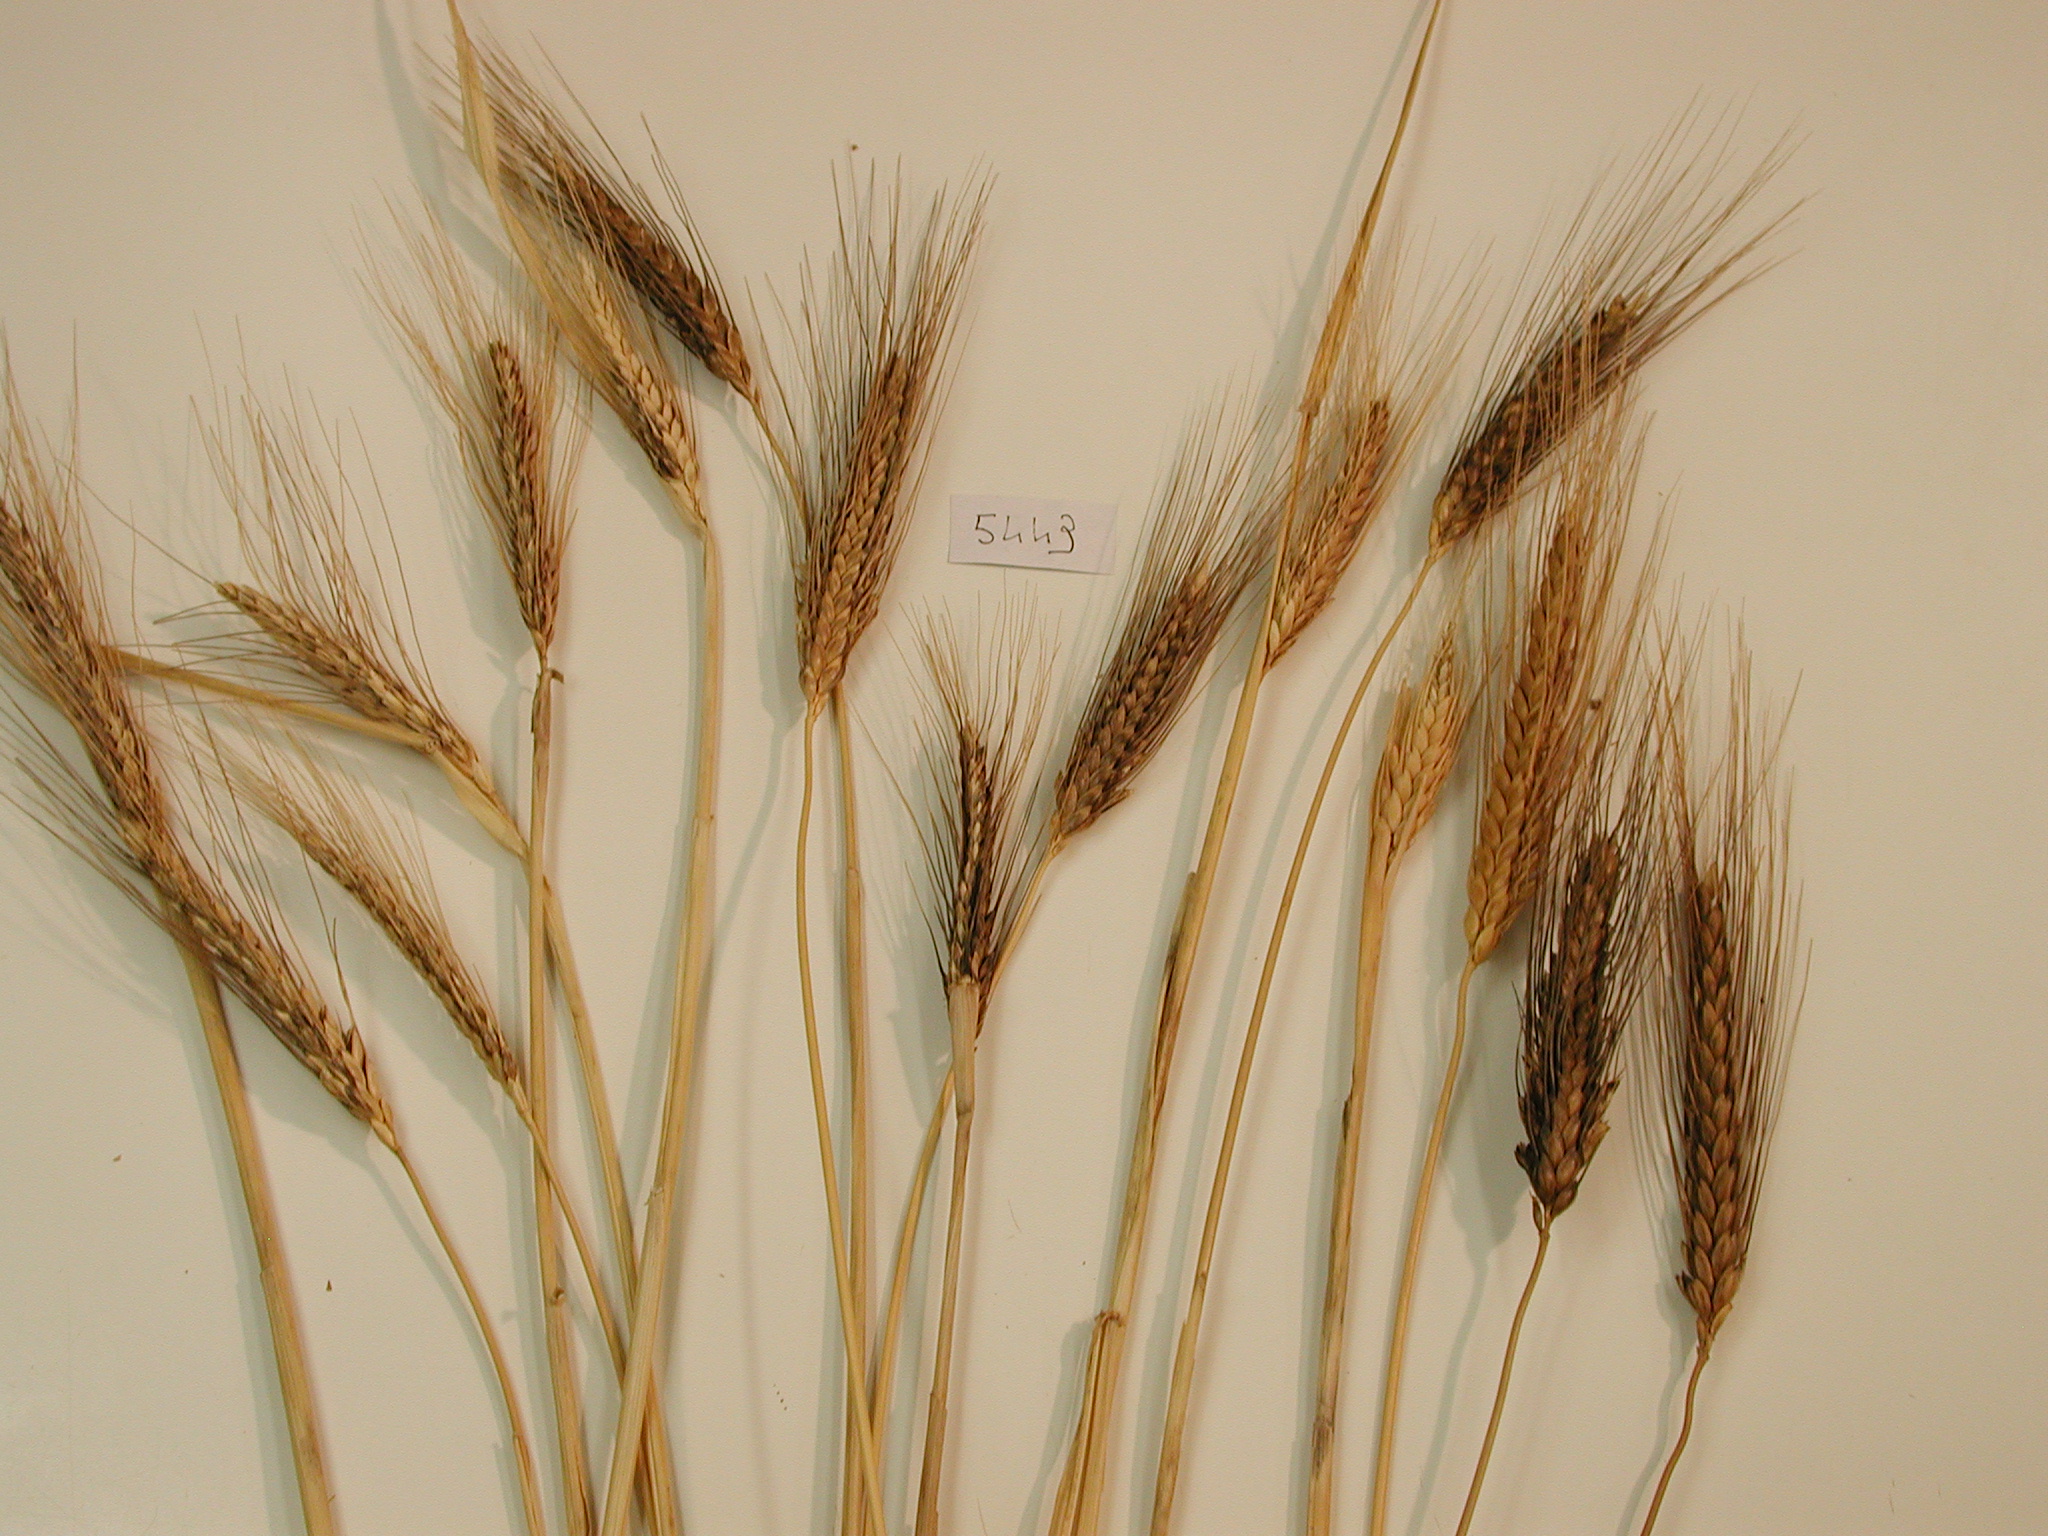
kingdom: Plantae
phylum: Tracheophyta
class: Liliopsida
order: Poales
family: Poaceae
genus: Triticum
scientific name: Triticum turgidum
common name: Emmer Wheat
